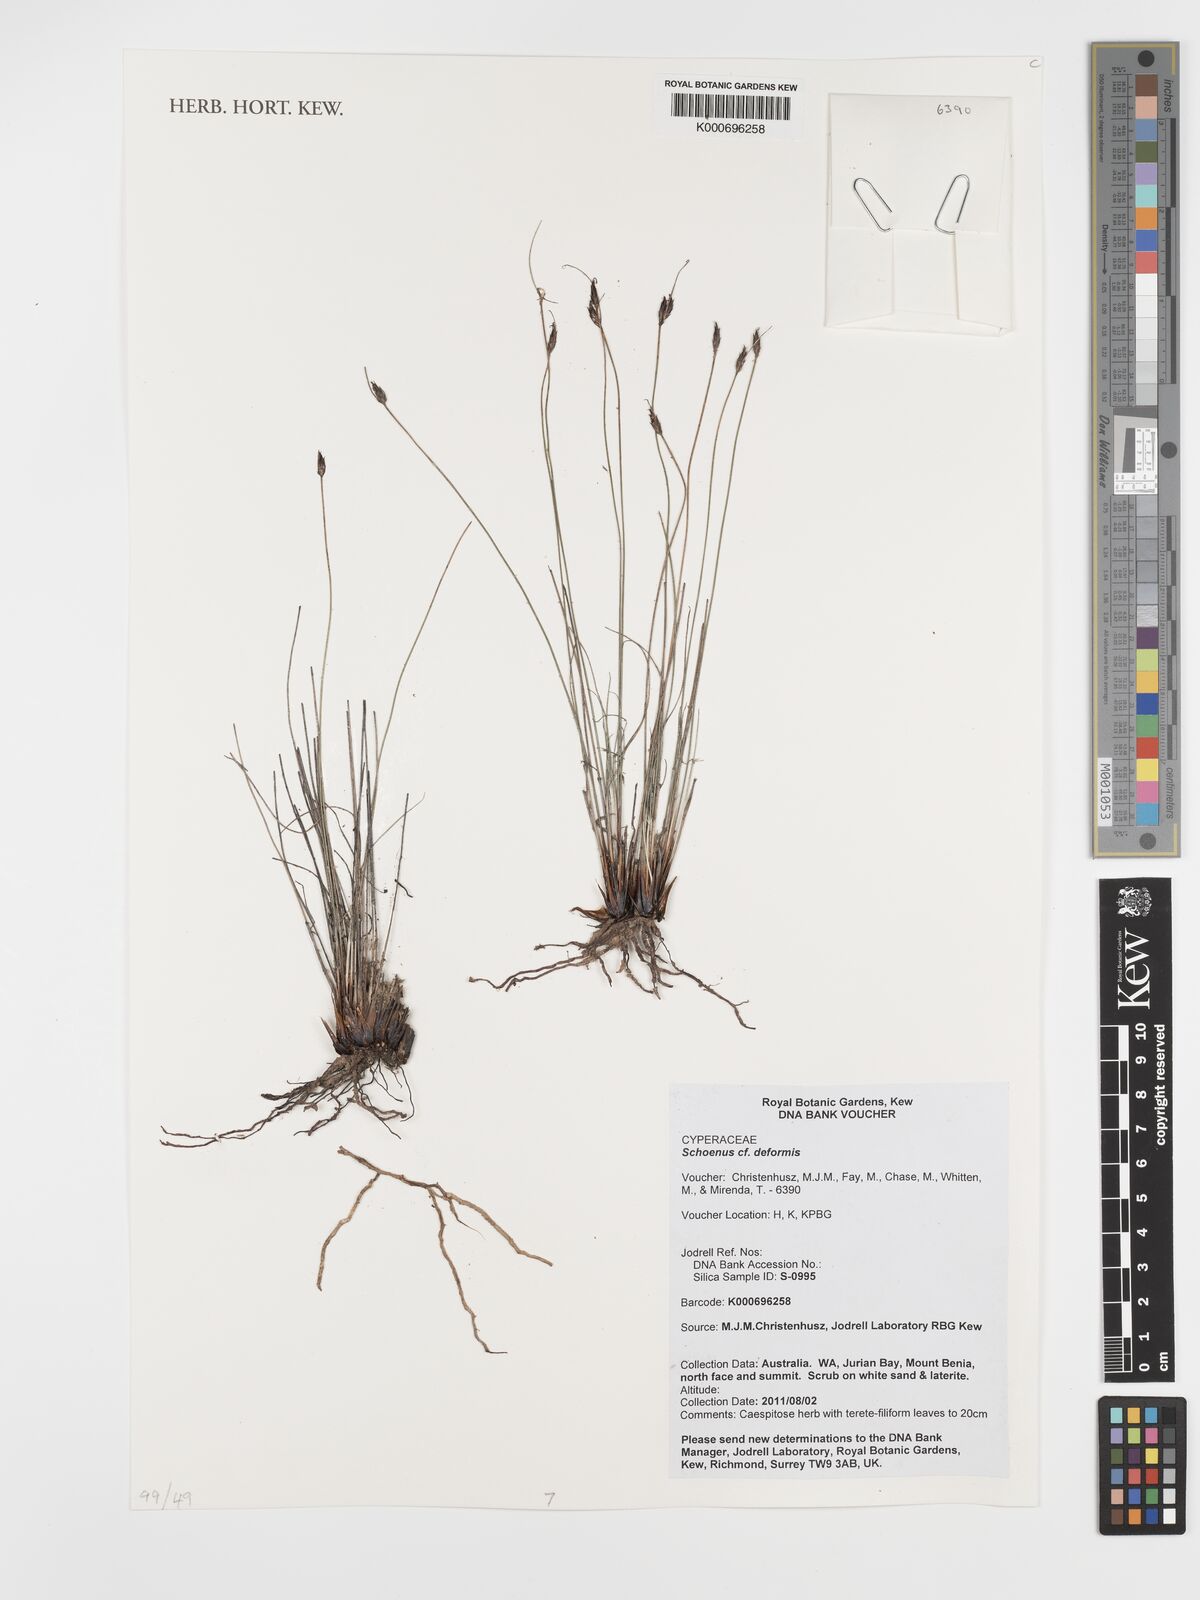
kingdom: Plantae
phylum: Tracheophyta
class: Liliopsida
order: Poales
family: Cyperaceae
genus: Schoenus
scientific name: Schoenus deformis
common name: Bog sedge
